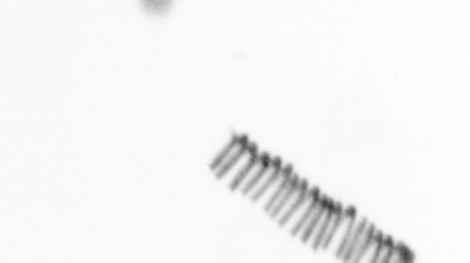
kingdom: Chromista
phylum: Ochrophyta
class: Bacillariophyceae
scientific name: Bacillariophyceae
